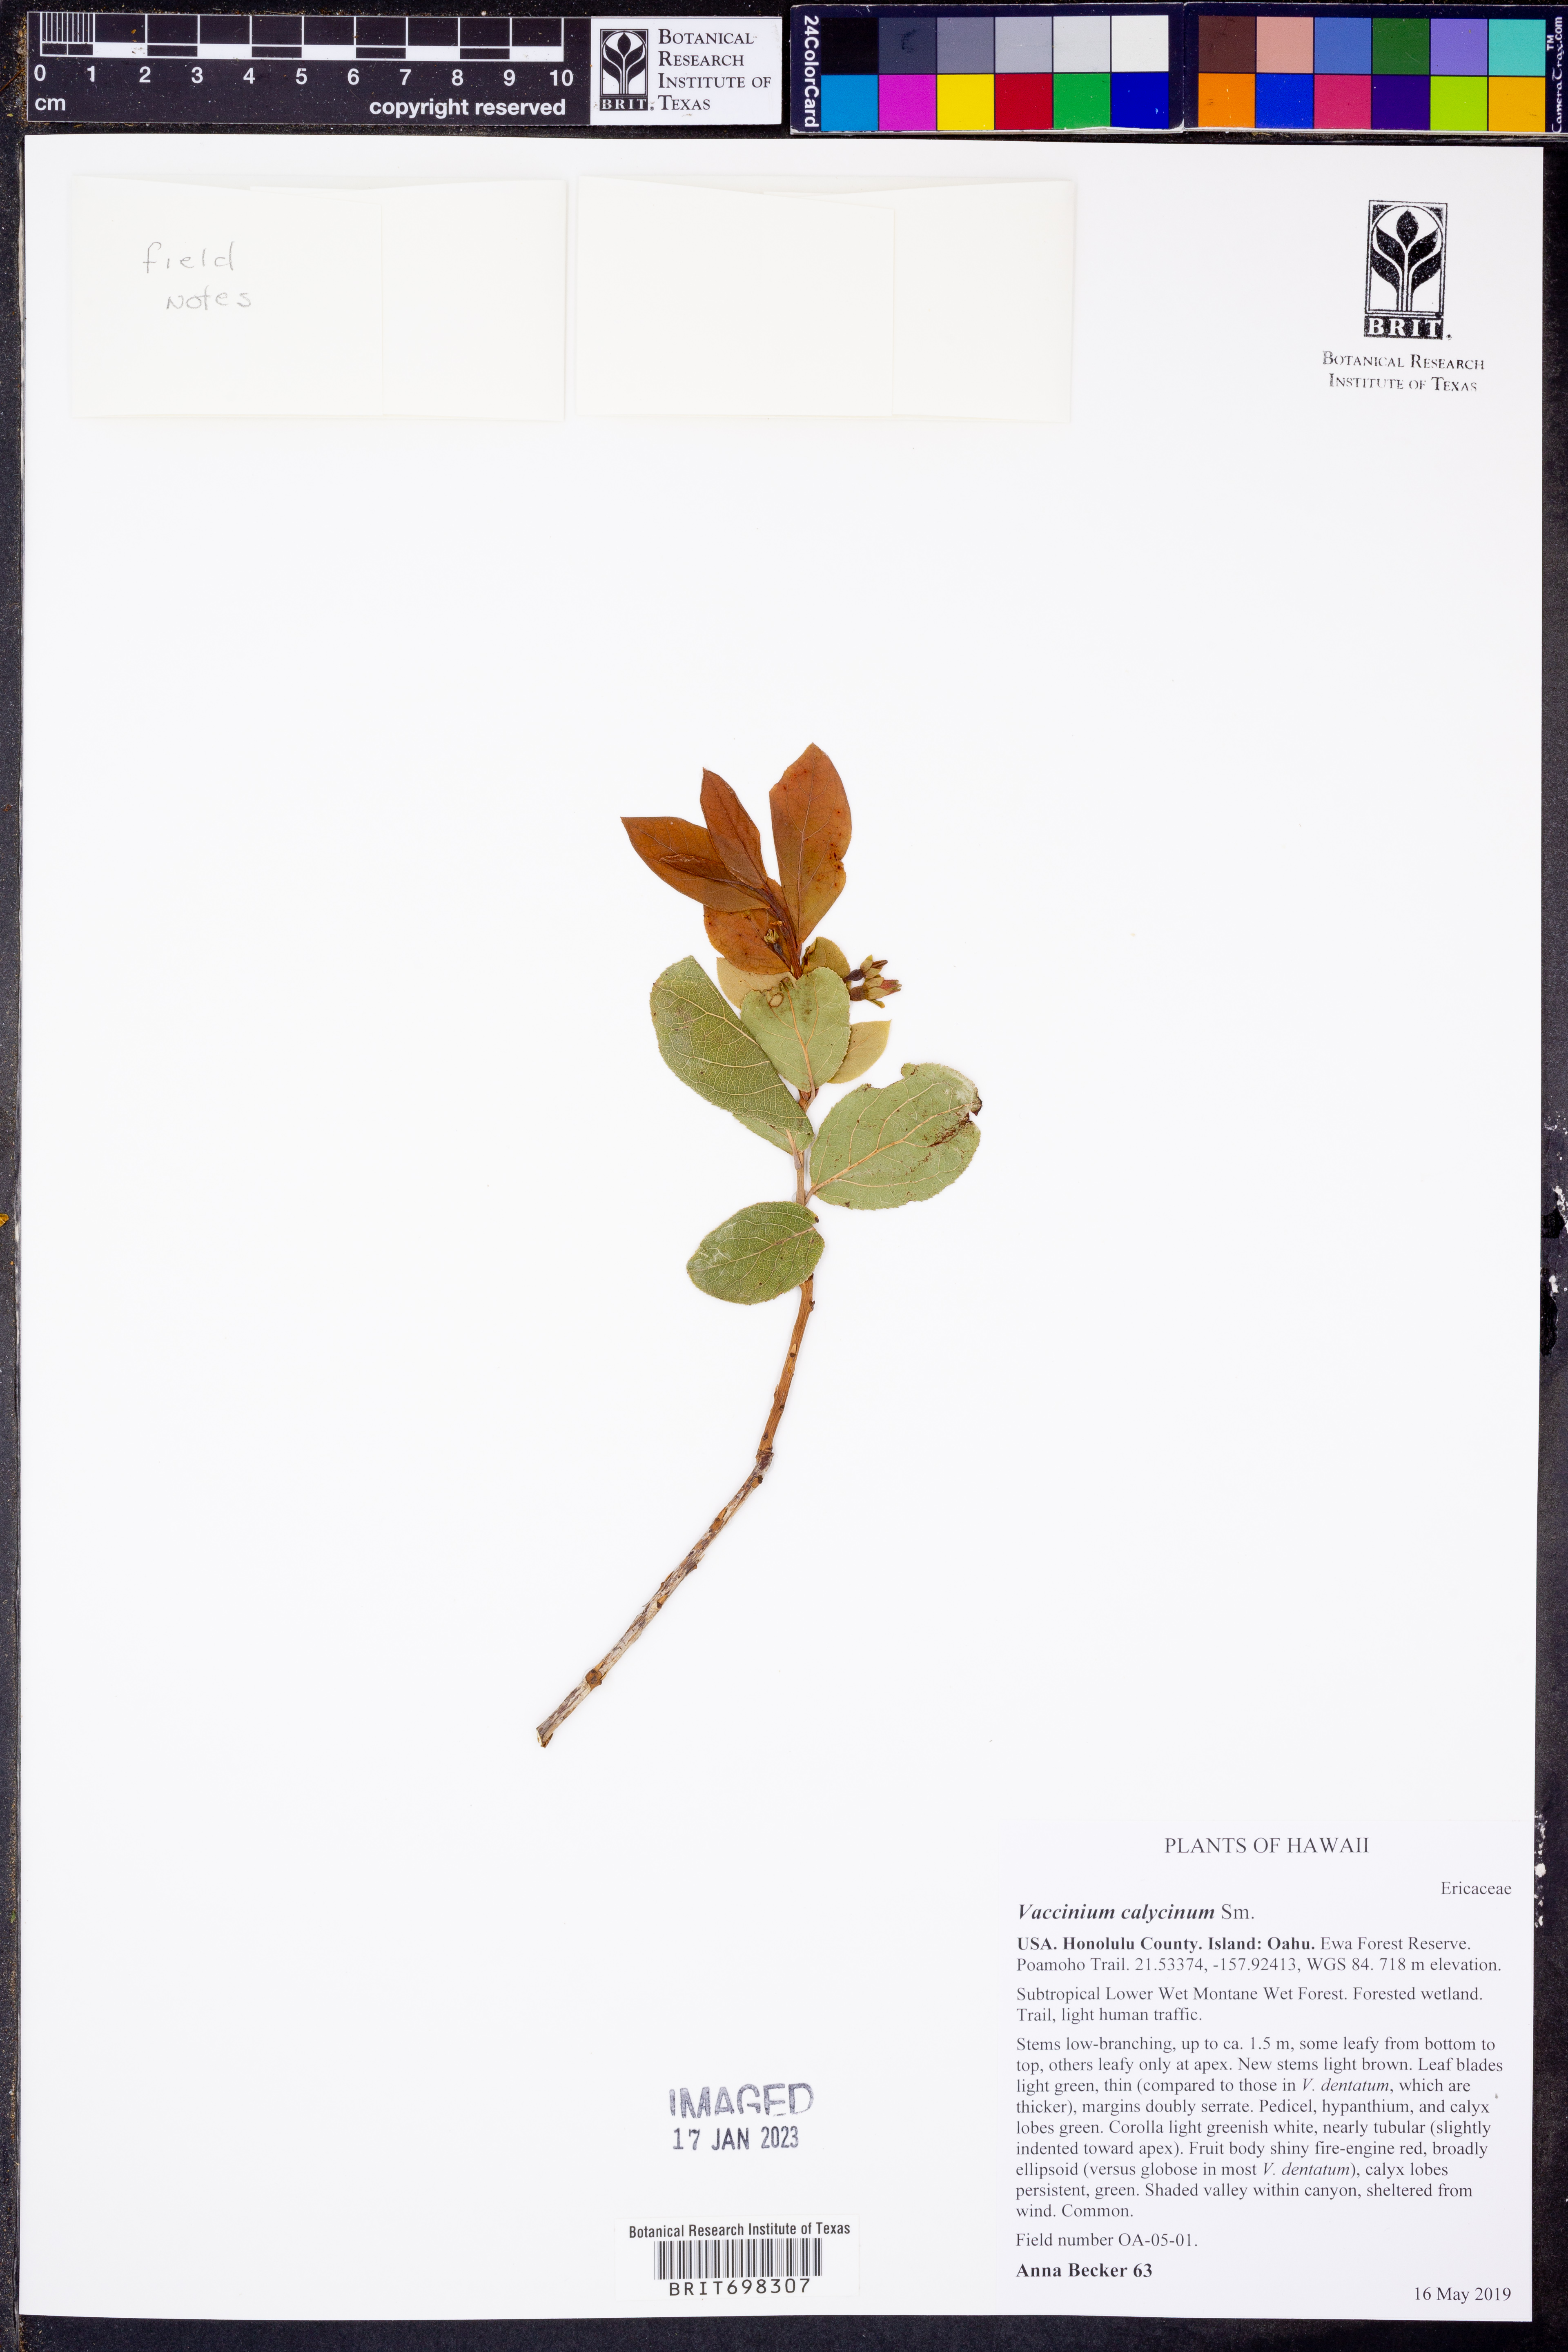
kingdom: Plantae
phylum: Tracheophyta
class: Magnoliopsida
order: Ericales
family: Ericaceae
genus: Vaccinium
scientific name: Vaccinium calycinum
